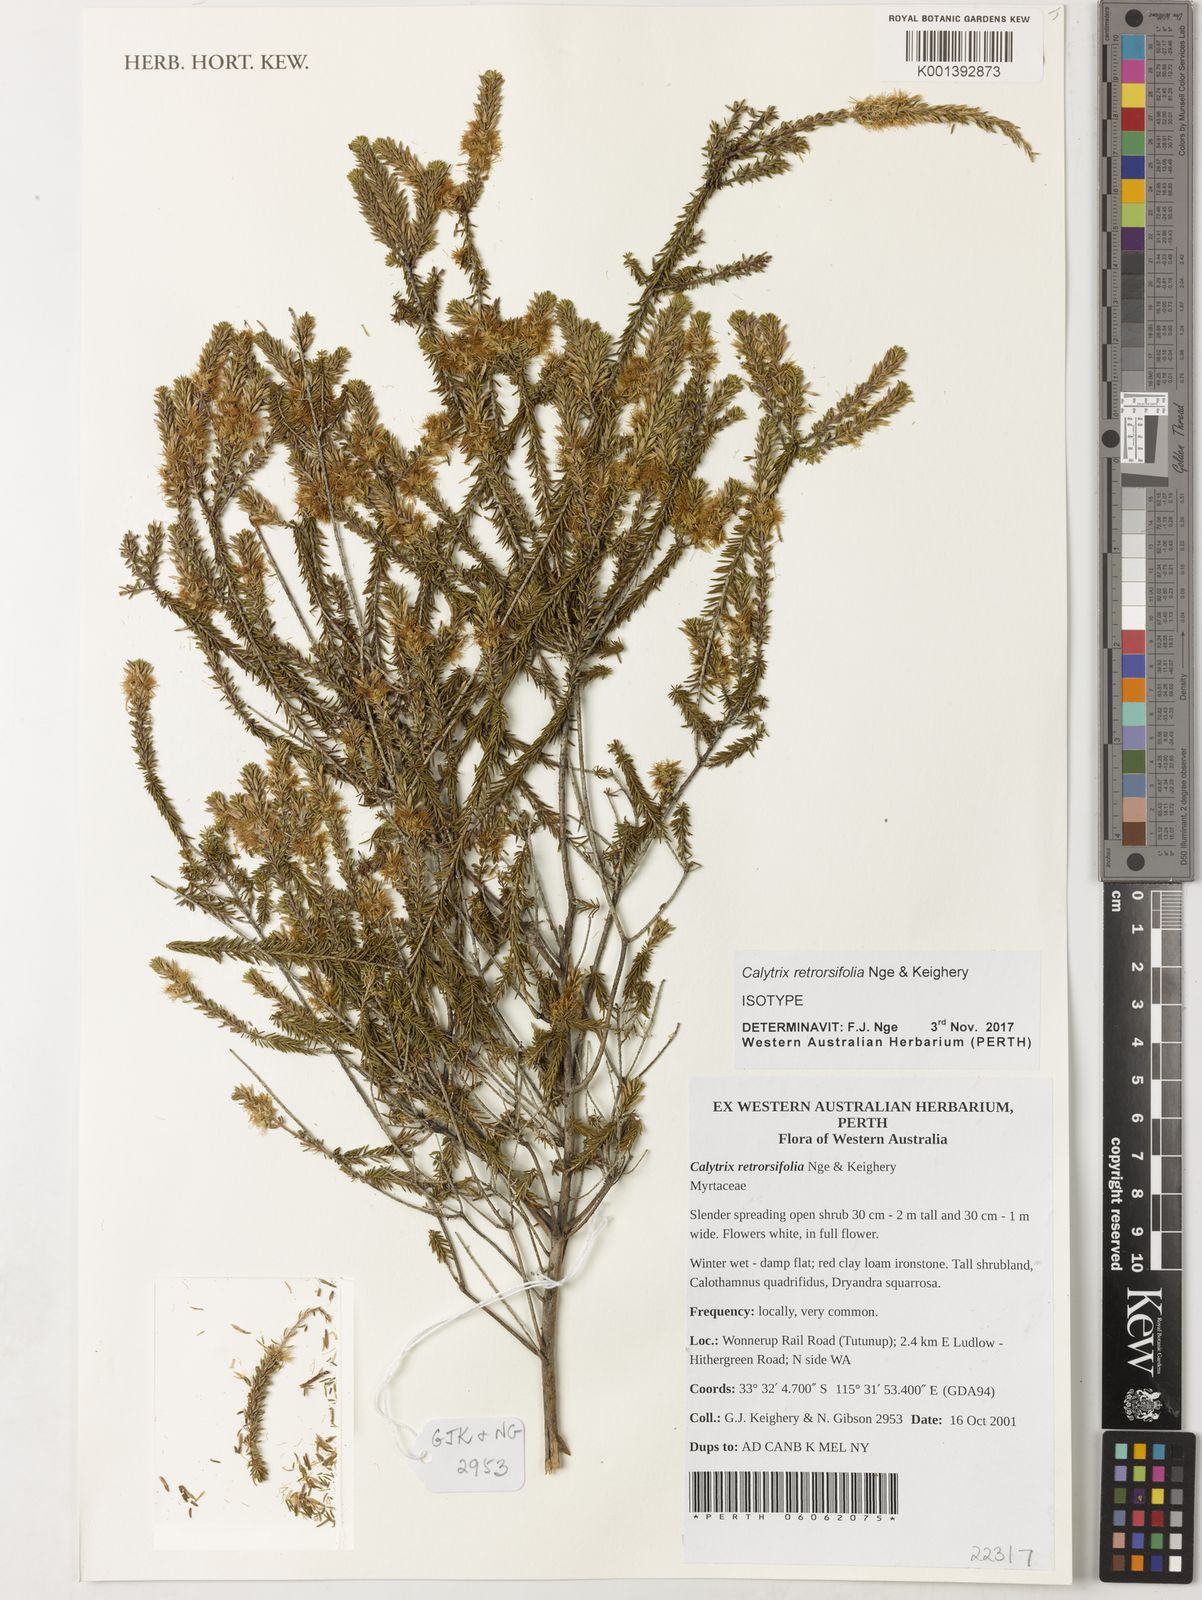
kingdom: Plantae
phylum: Tracheophyta
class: Magnoliopsida
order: Myrtales
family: Myrtaceae
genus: Calytrix
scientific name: Calytrix retrorsifolia
